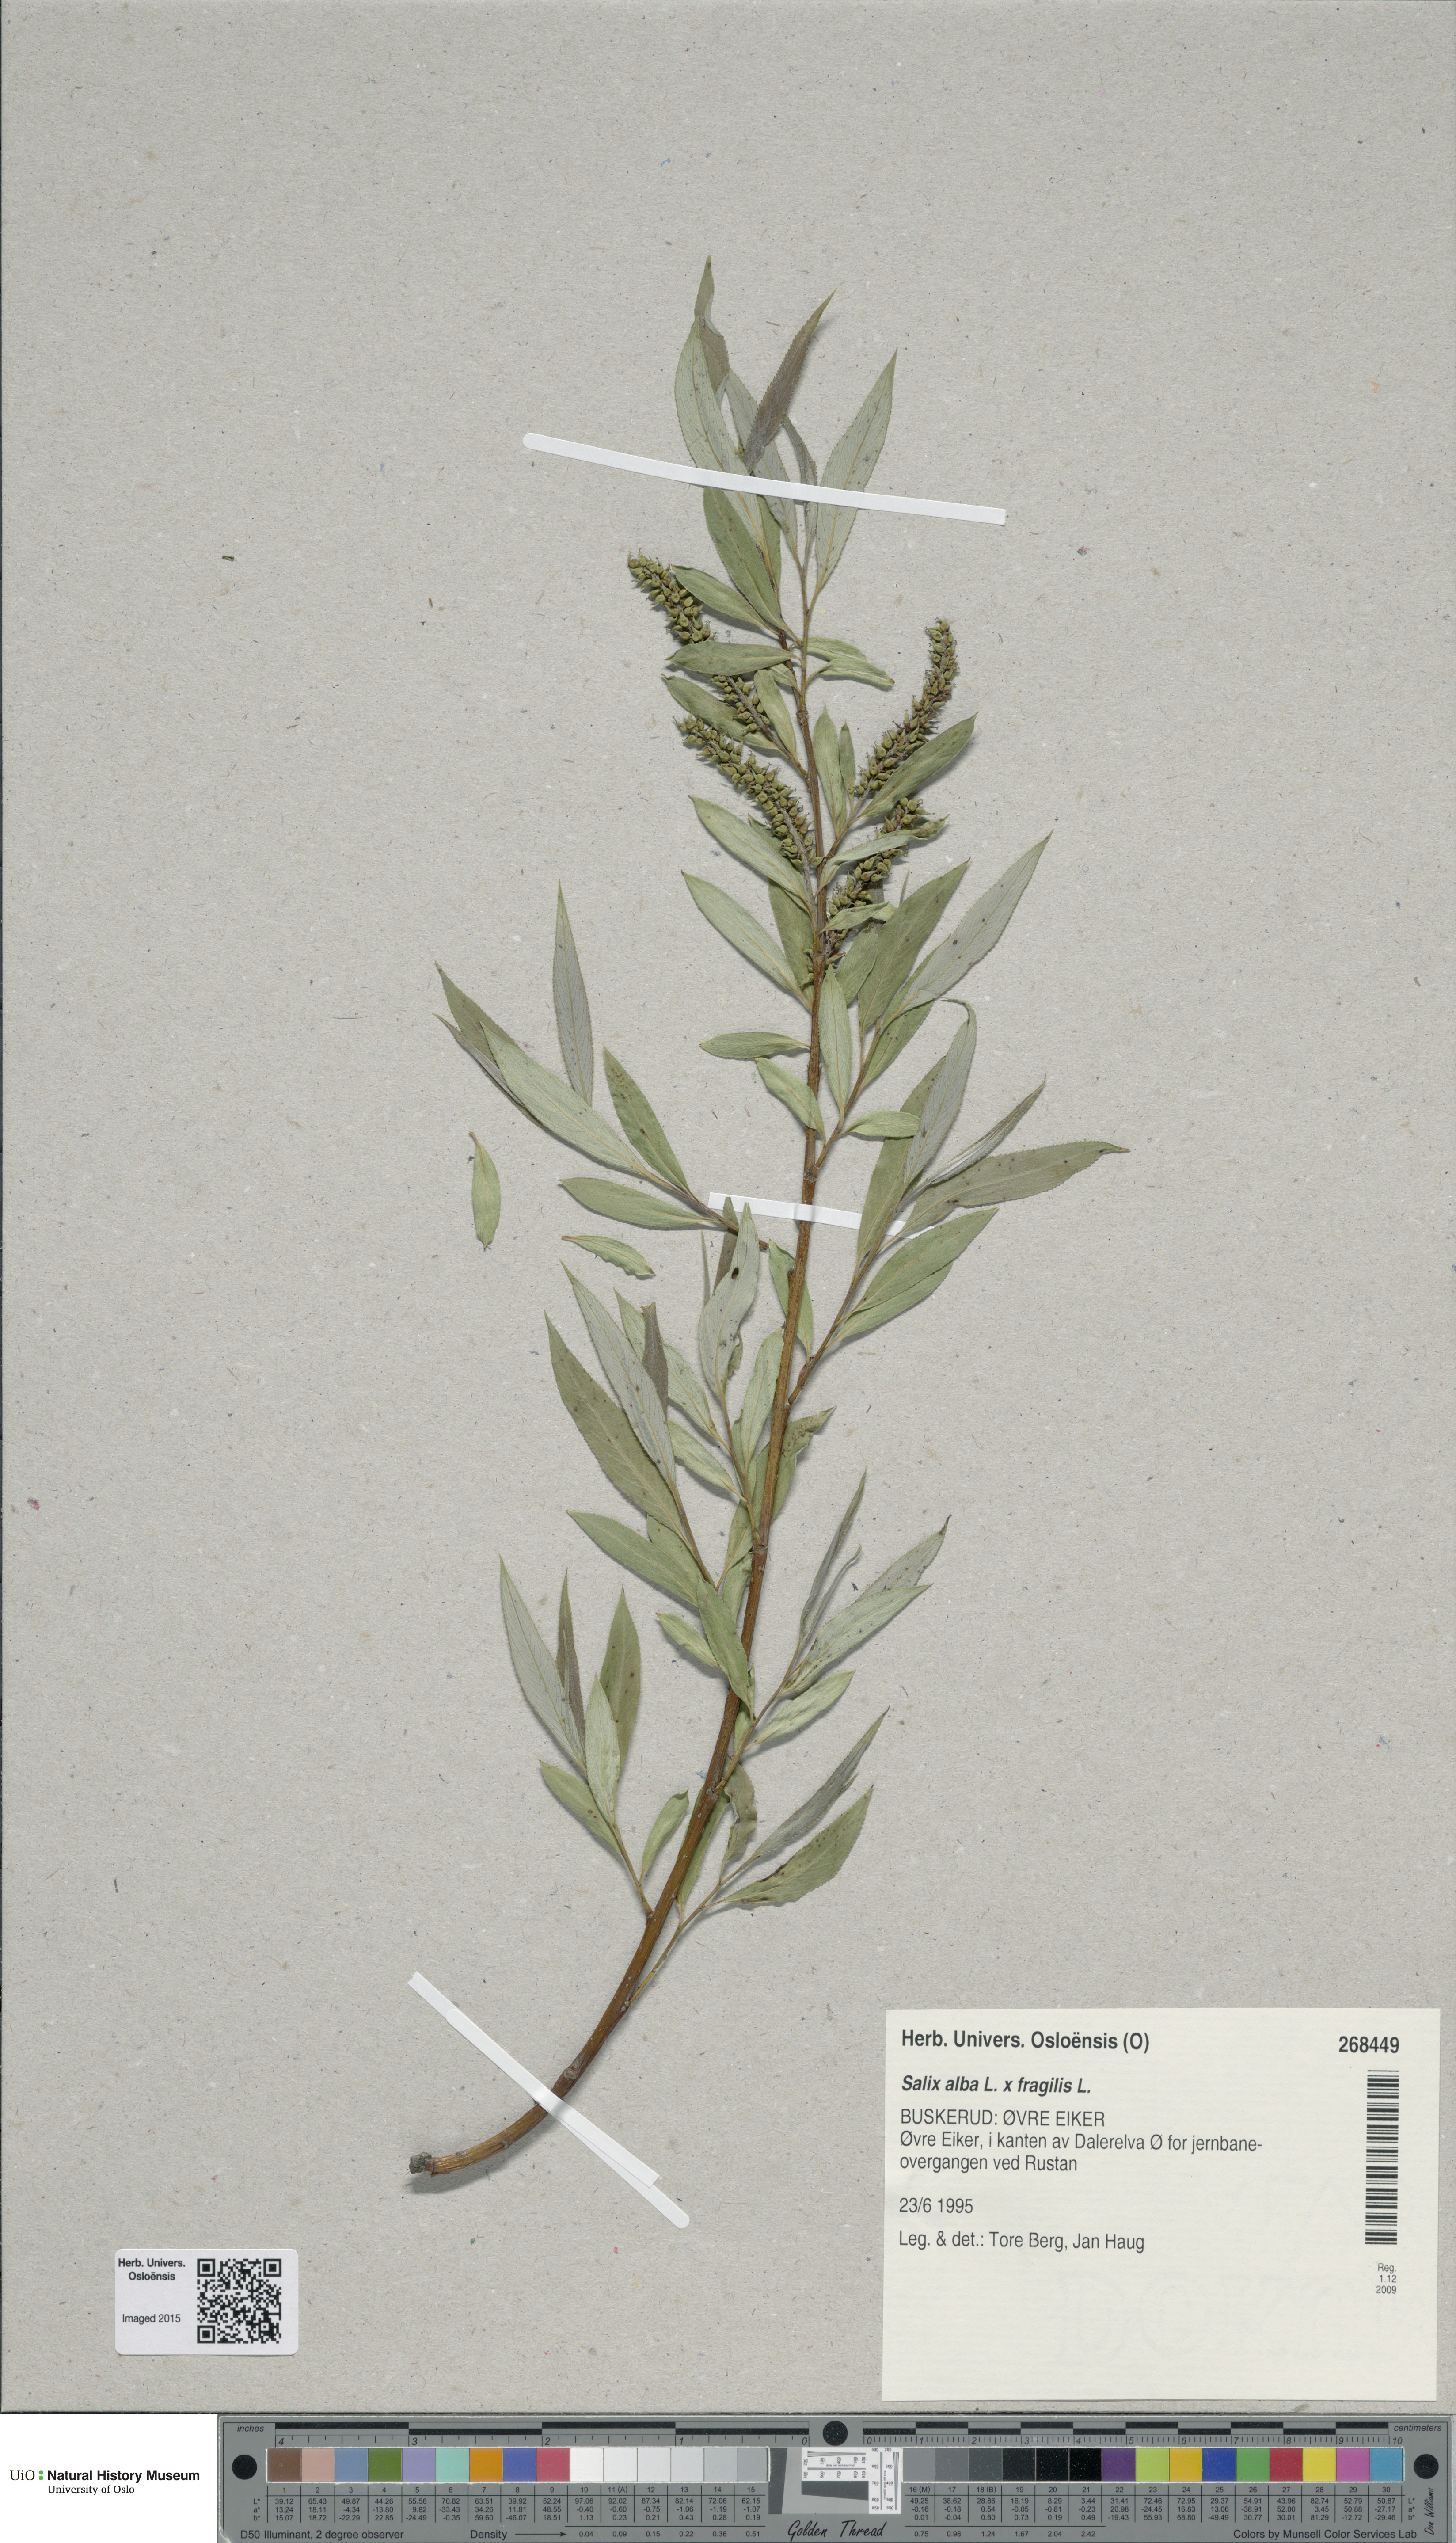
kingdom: Plantae
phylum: Tracheophyta
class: Magnoliopsida
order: Malpighiales
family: Salicaceae
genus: Salix
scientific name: Salix
